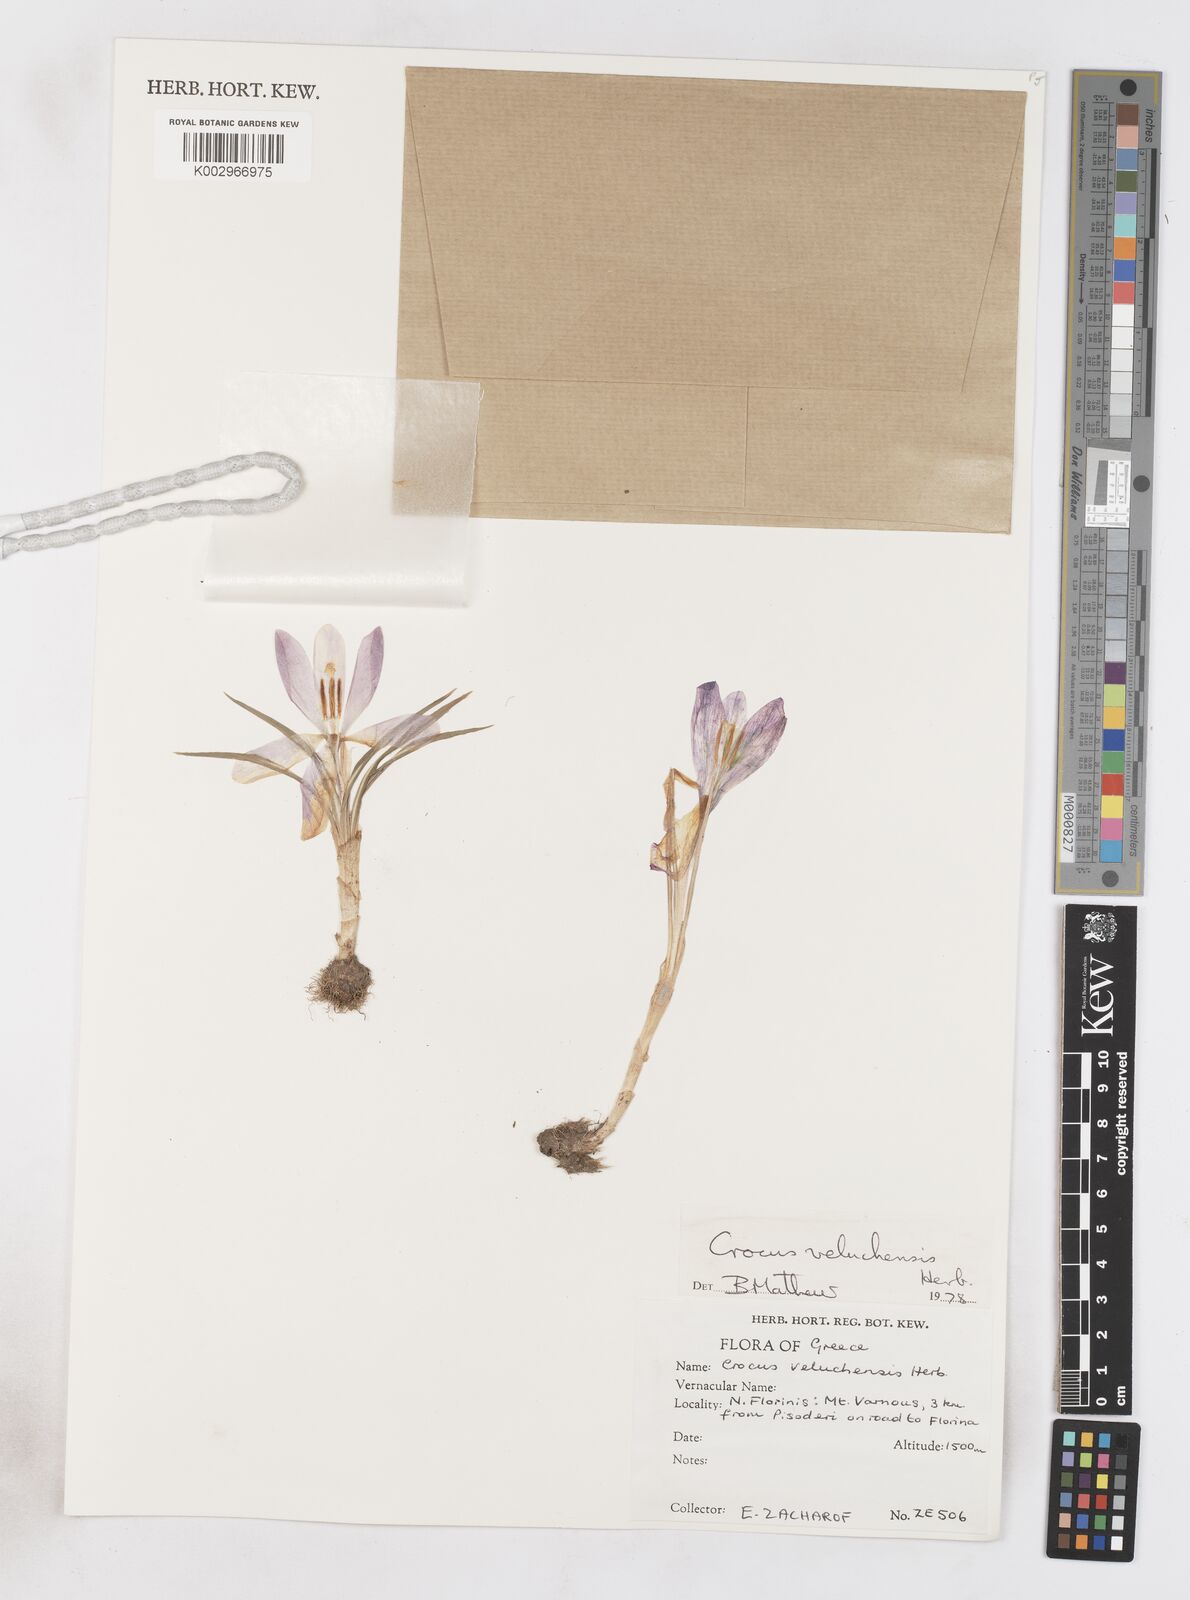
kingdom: Plantae
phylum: Tracheophyta
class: Liliopsida
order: Asparagales
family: Iridaceae
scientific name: Iridaceae
